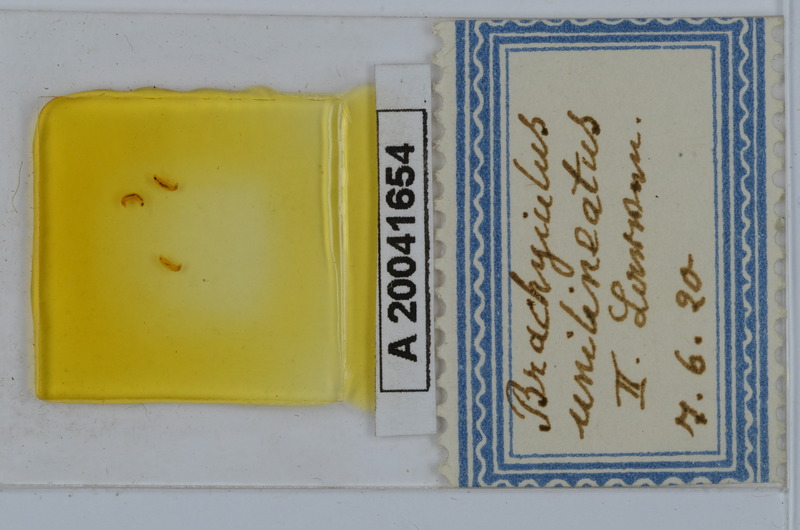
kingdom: Animalia
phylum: Arthropoda
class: Diplopoda
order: Julida
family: Julidae
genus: Brachyiulus
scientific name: Brachyiulus unilineatus
